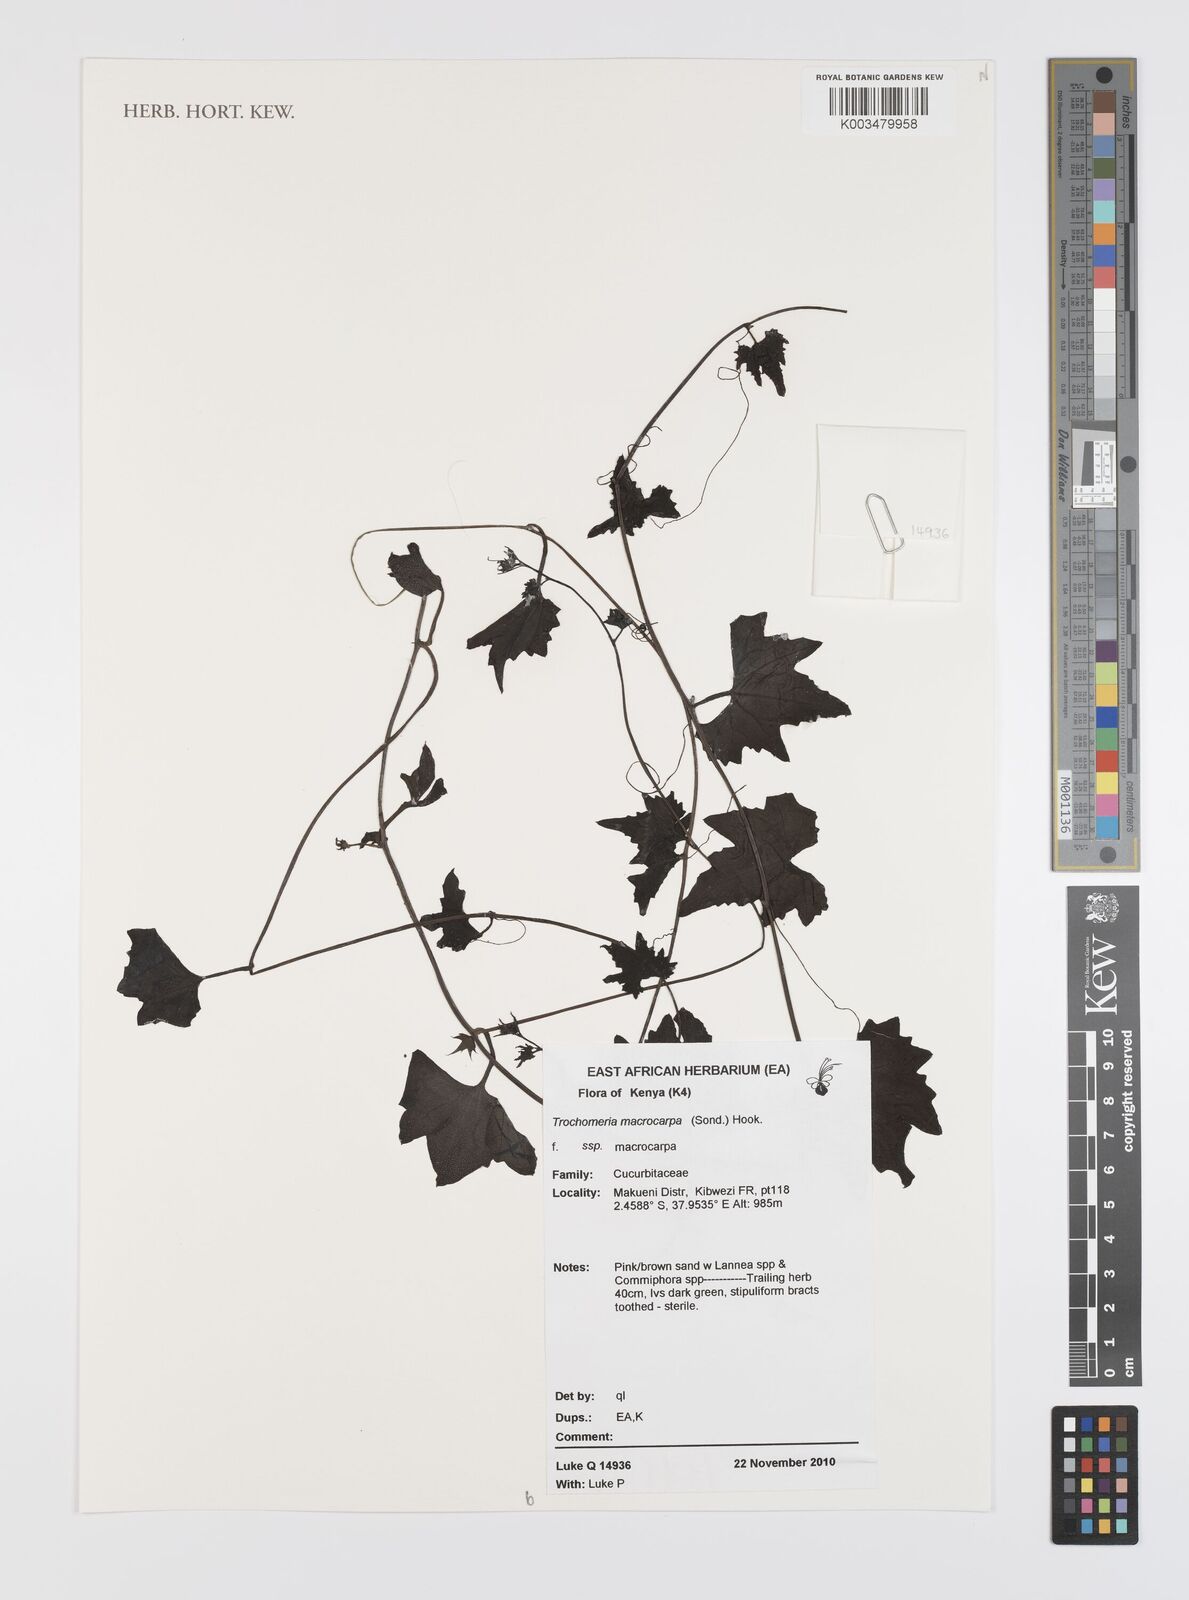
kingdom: Plantae
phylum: Tracheophyta
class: Magnoliopsida
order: Cucurbitales
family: Cucurbitaceae
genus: Trochomeria
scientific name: Trochomeria macrocarpa
